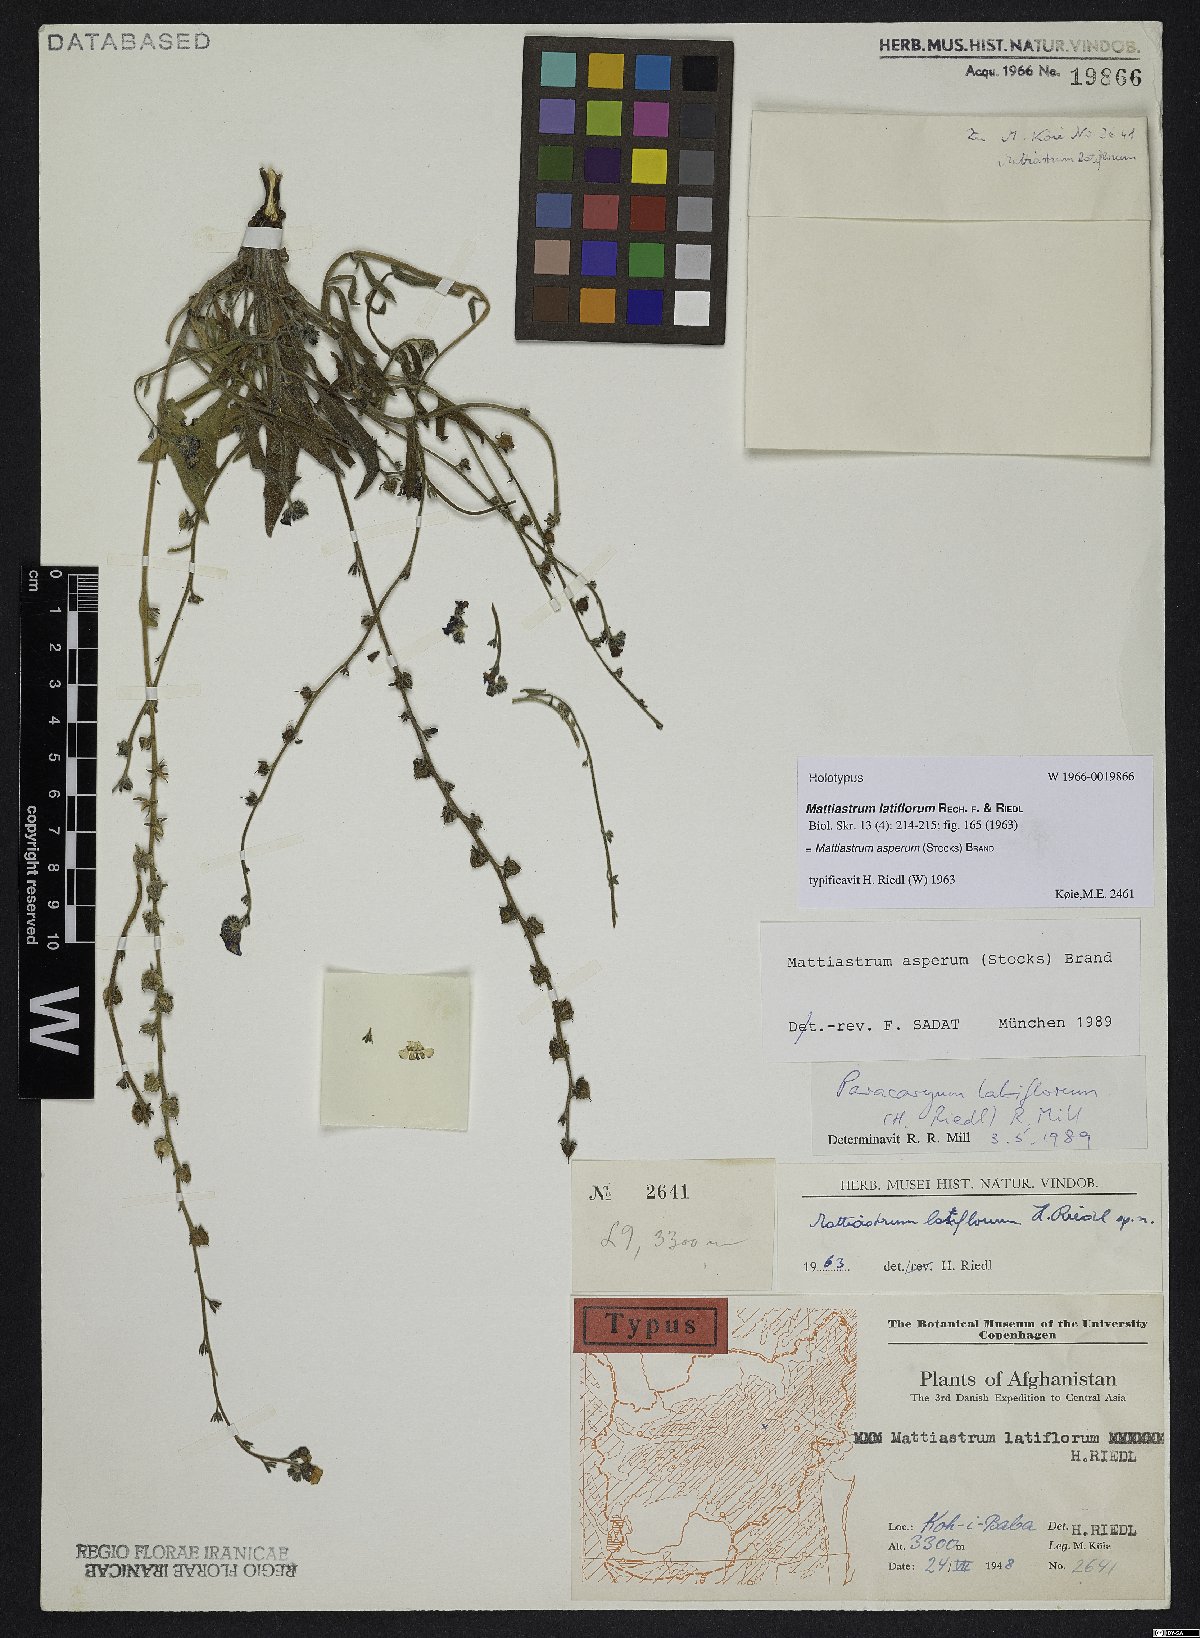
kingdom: Plantae
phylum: Tracheophyta
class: Magnoliopsida
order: Boraginales
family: Boraginaceae
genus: Paracaryum
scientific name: Paracaryum asperum
